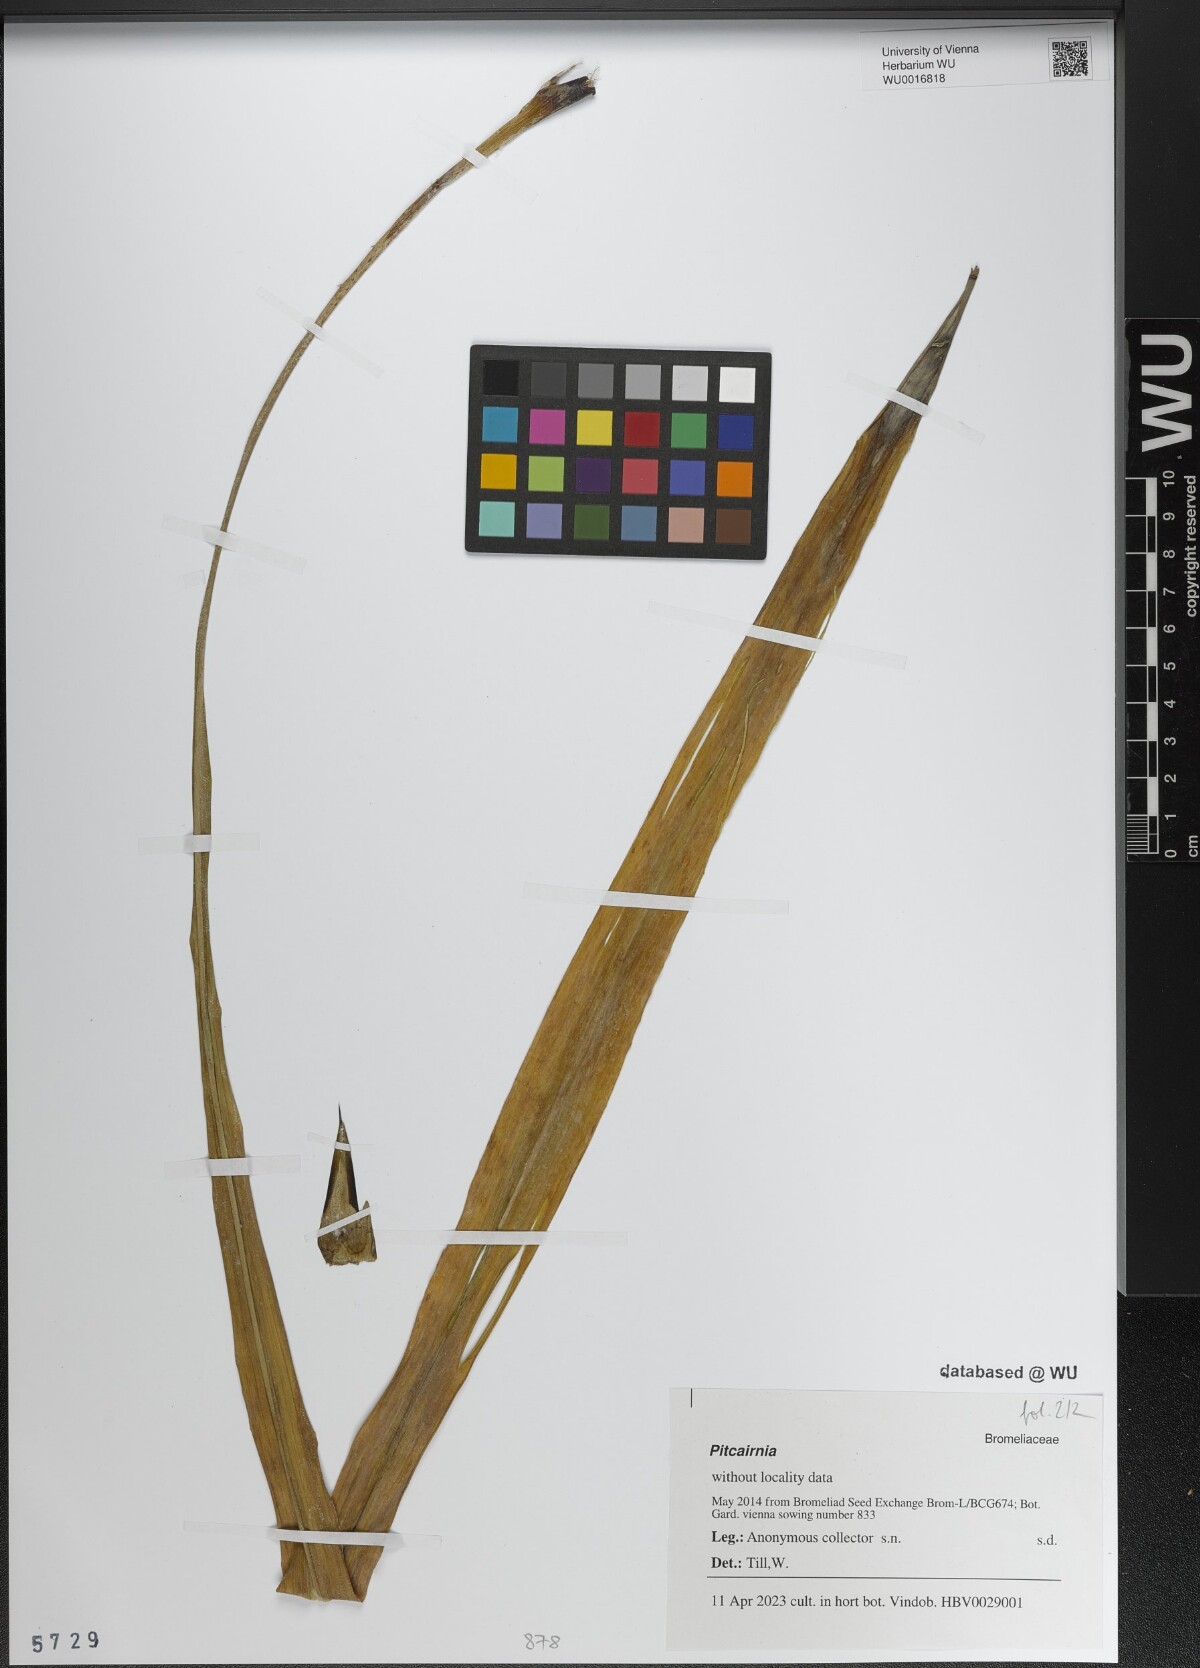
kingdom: Plantae
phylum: Tracheophyta
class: Liliopsida
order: Poales
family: Bromeliaceae
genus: Pitcairnia
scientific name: Pitcairnia
